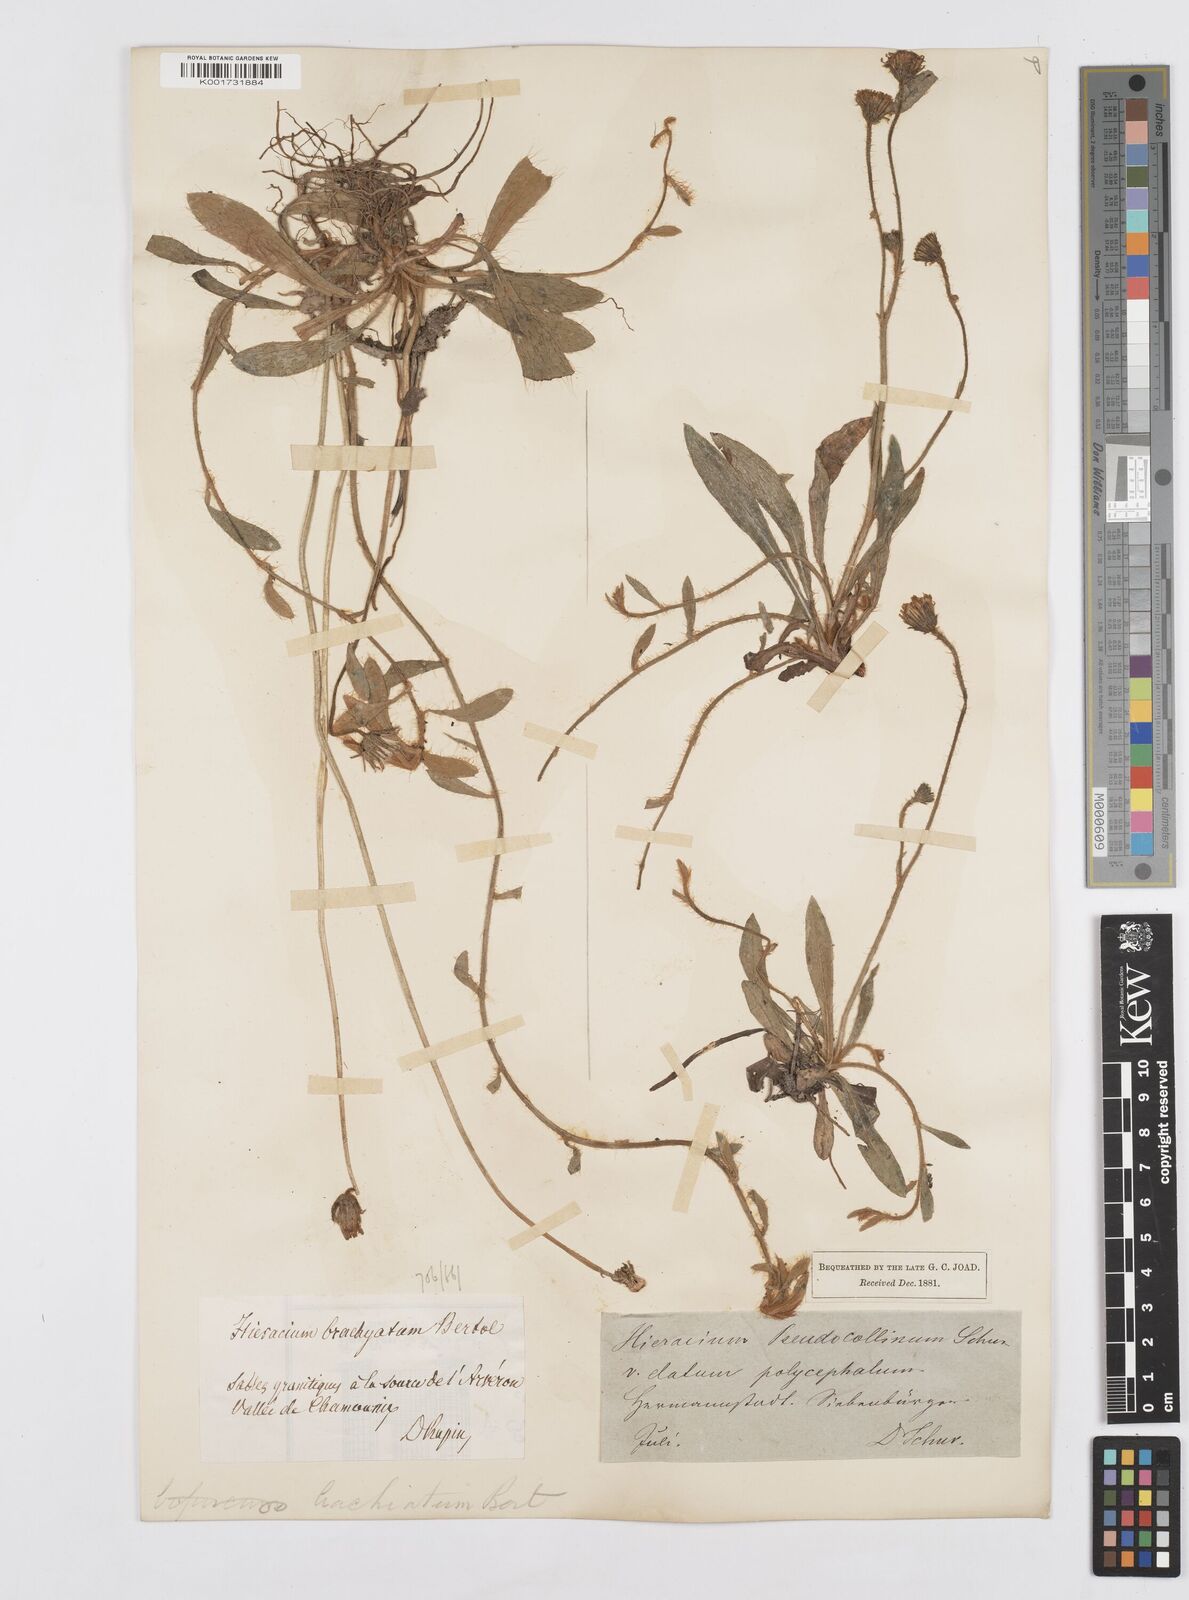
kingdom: Plantae
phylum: Tracheophyta
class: Magnoliopsida
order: Asterales
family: Asteraceae
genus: Pilosella
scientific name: Pilosella acutifolia
